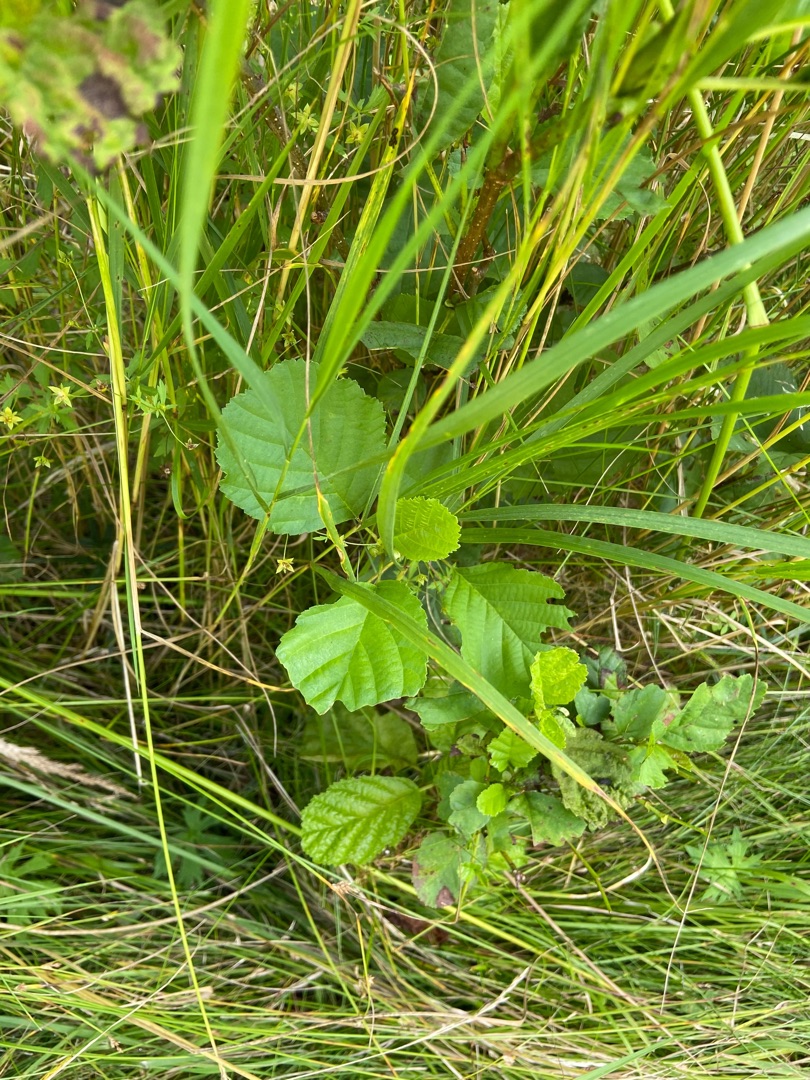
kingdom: Plantae
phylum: Tracheophyta
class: Magnoliopsida
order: Fagales
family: Betulaceae
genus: Alnus
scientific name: Alnus glutinosa
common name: Rød-el
